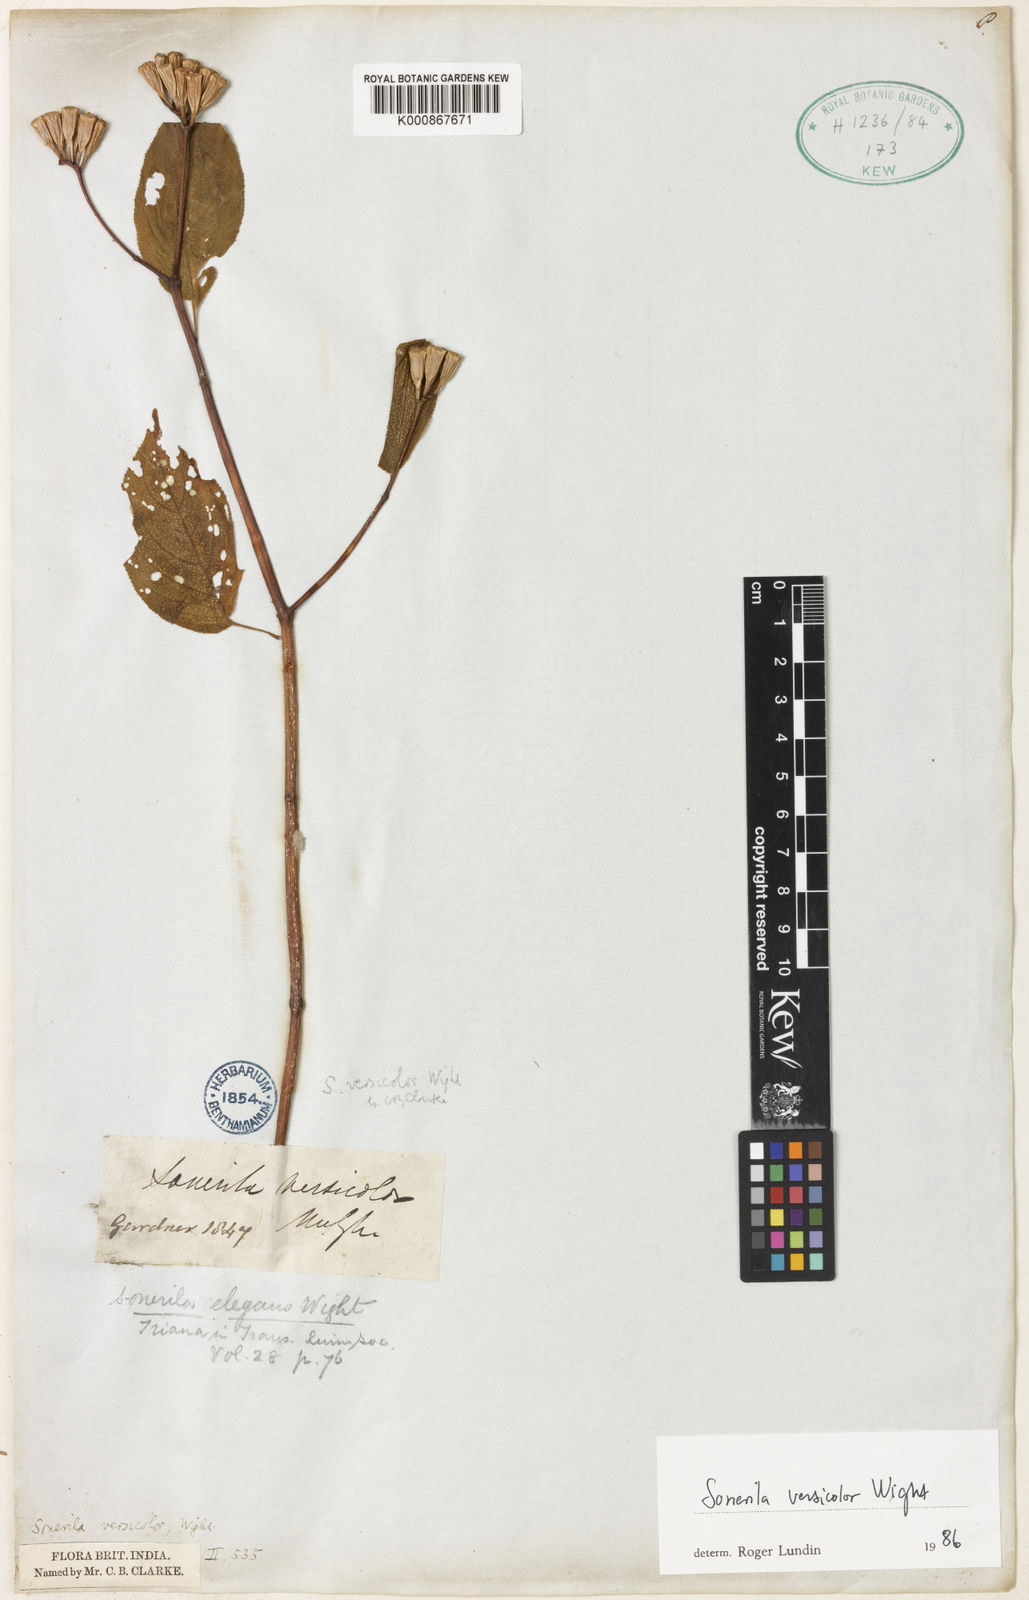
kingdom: Plantae
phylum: Tracheophyta
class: Magnoliopsida
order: Myrtales
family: Melastomataceae
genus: Sonerila
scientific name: Sonerila versicolor
